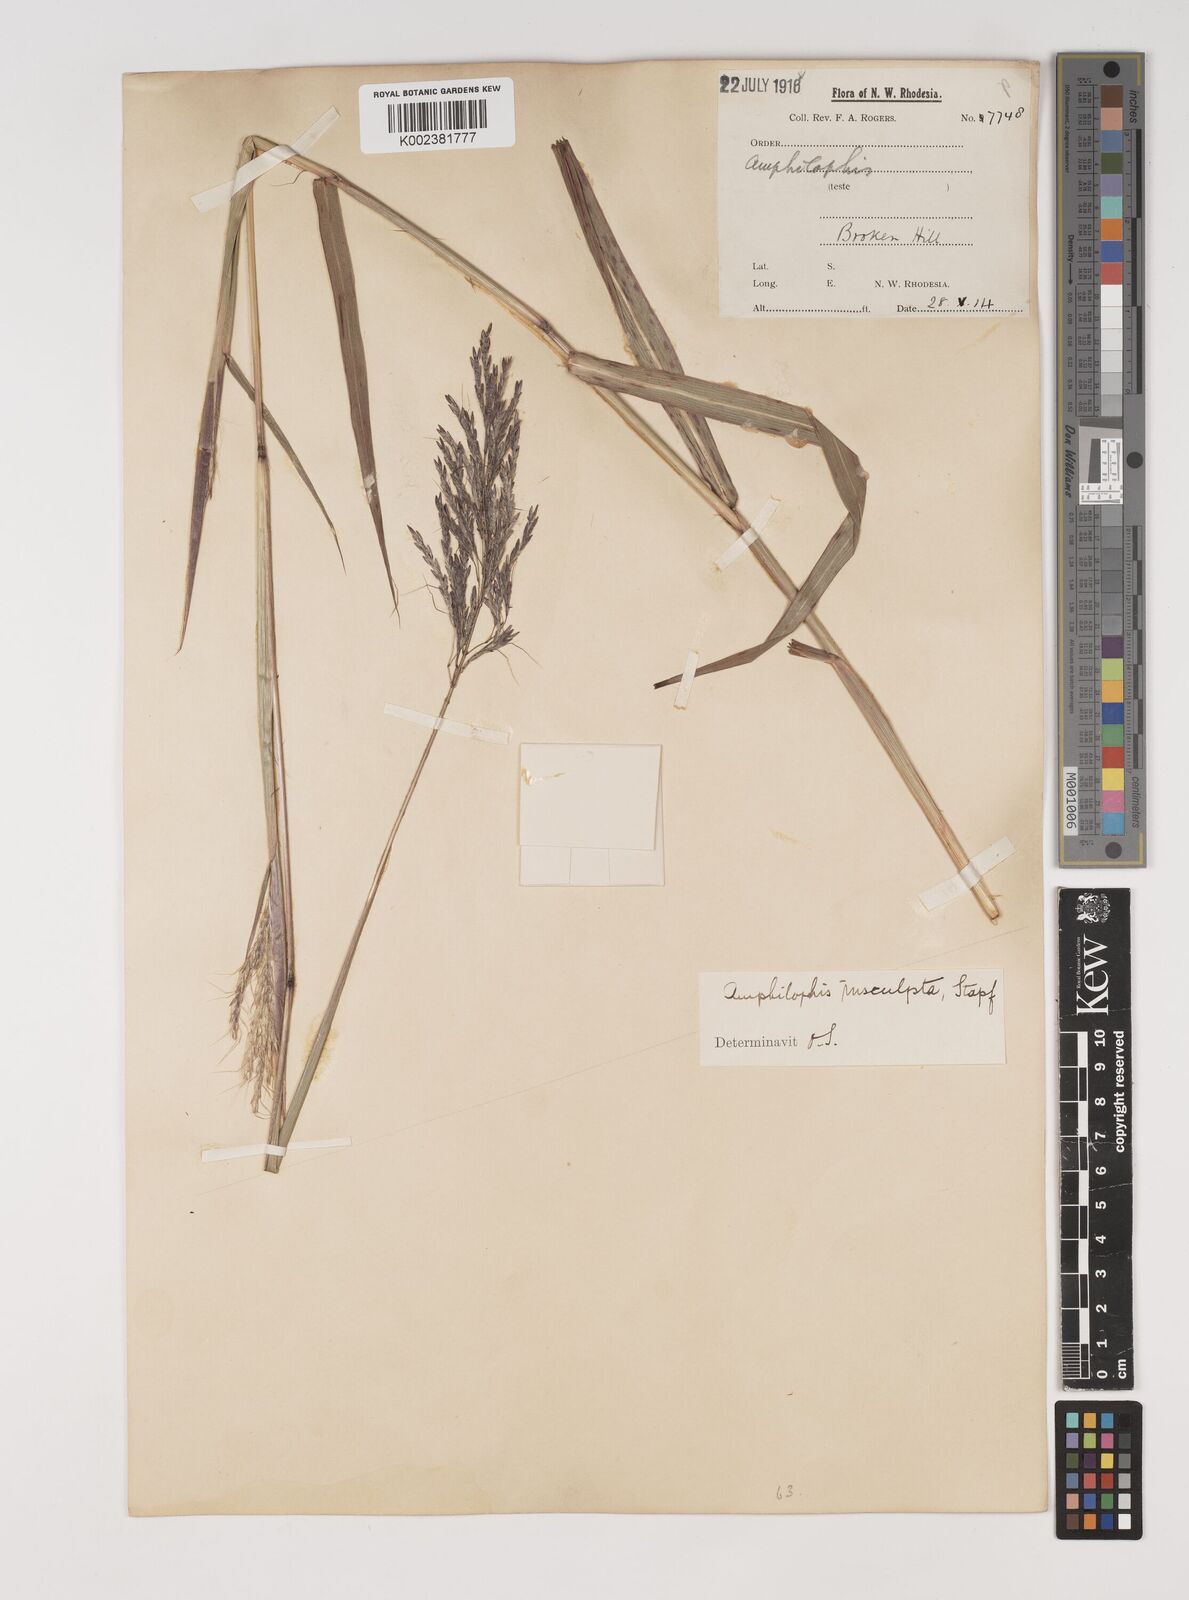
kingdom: Plantae
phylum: Tracheophyta
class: Liliopsida
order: Poales
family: Poaceae
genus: Bothriochloa
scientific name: Bothriochloa bladhii
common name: Caucasian bluestem
